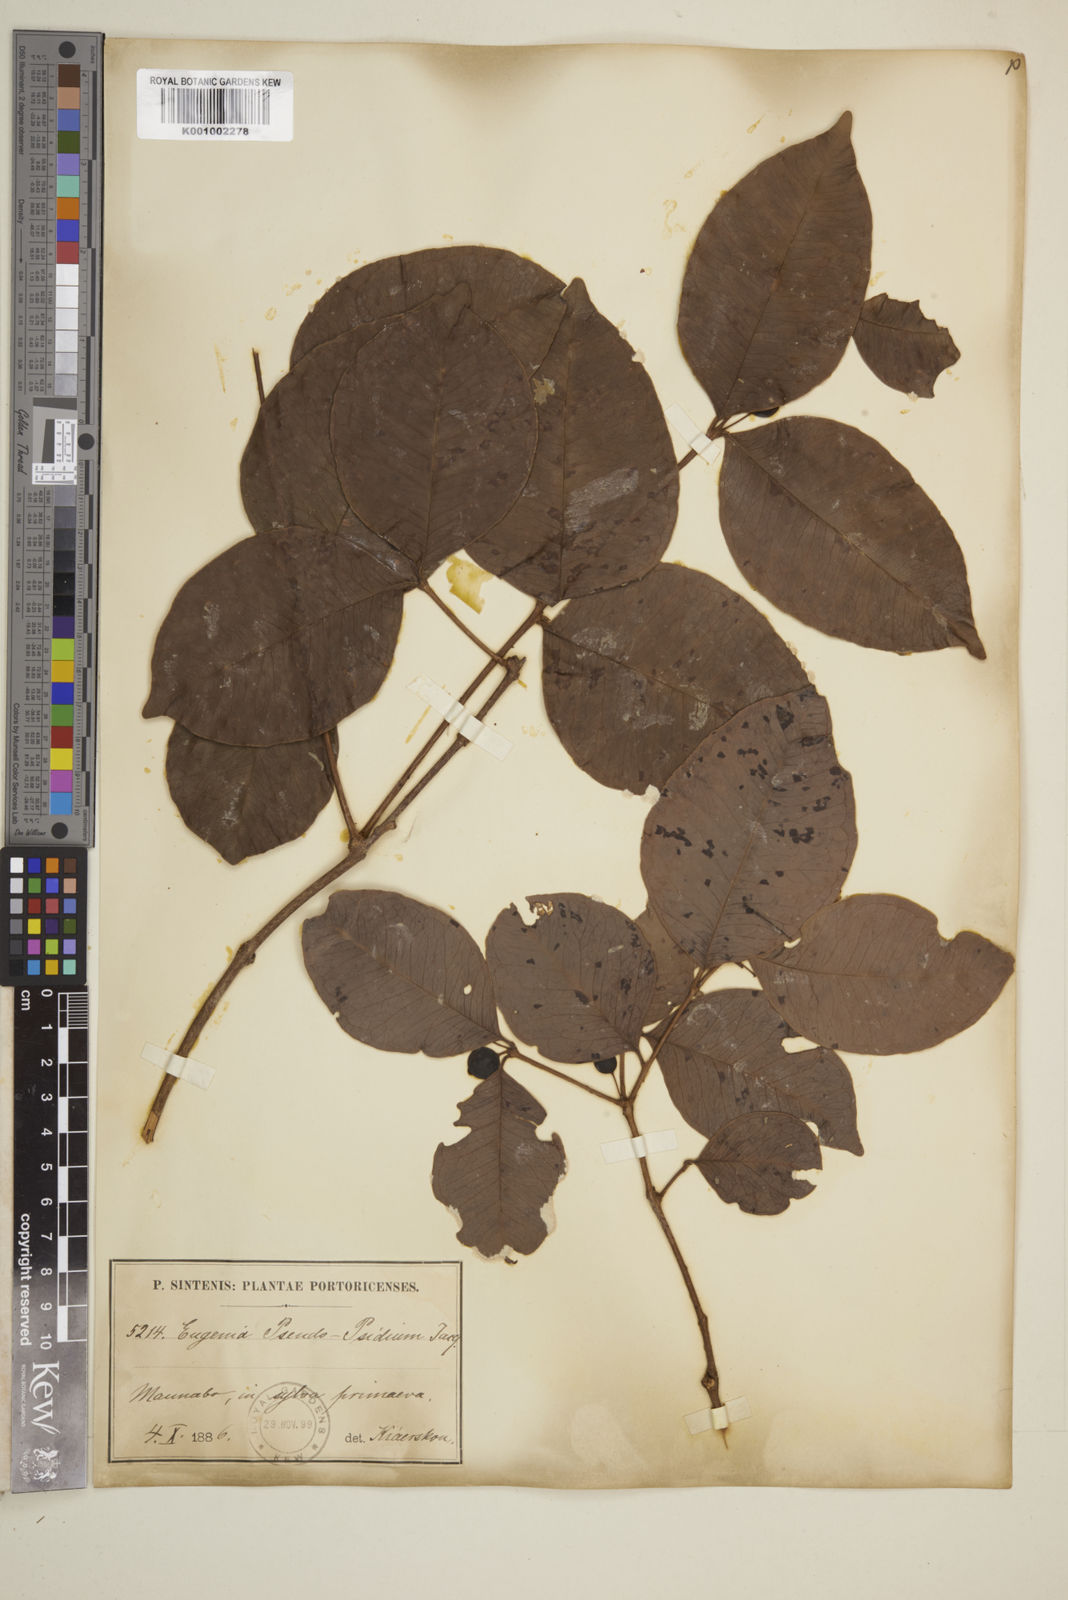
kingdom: Plantae
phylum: Tracheophyta
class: Magnoliopsida
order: Myrtales
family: Myrtaceae
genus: Eugenia
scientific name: Eugenia pseudopsidium
